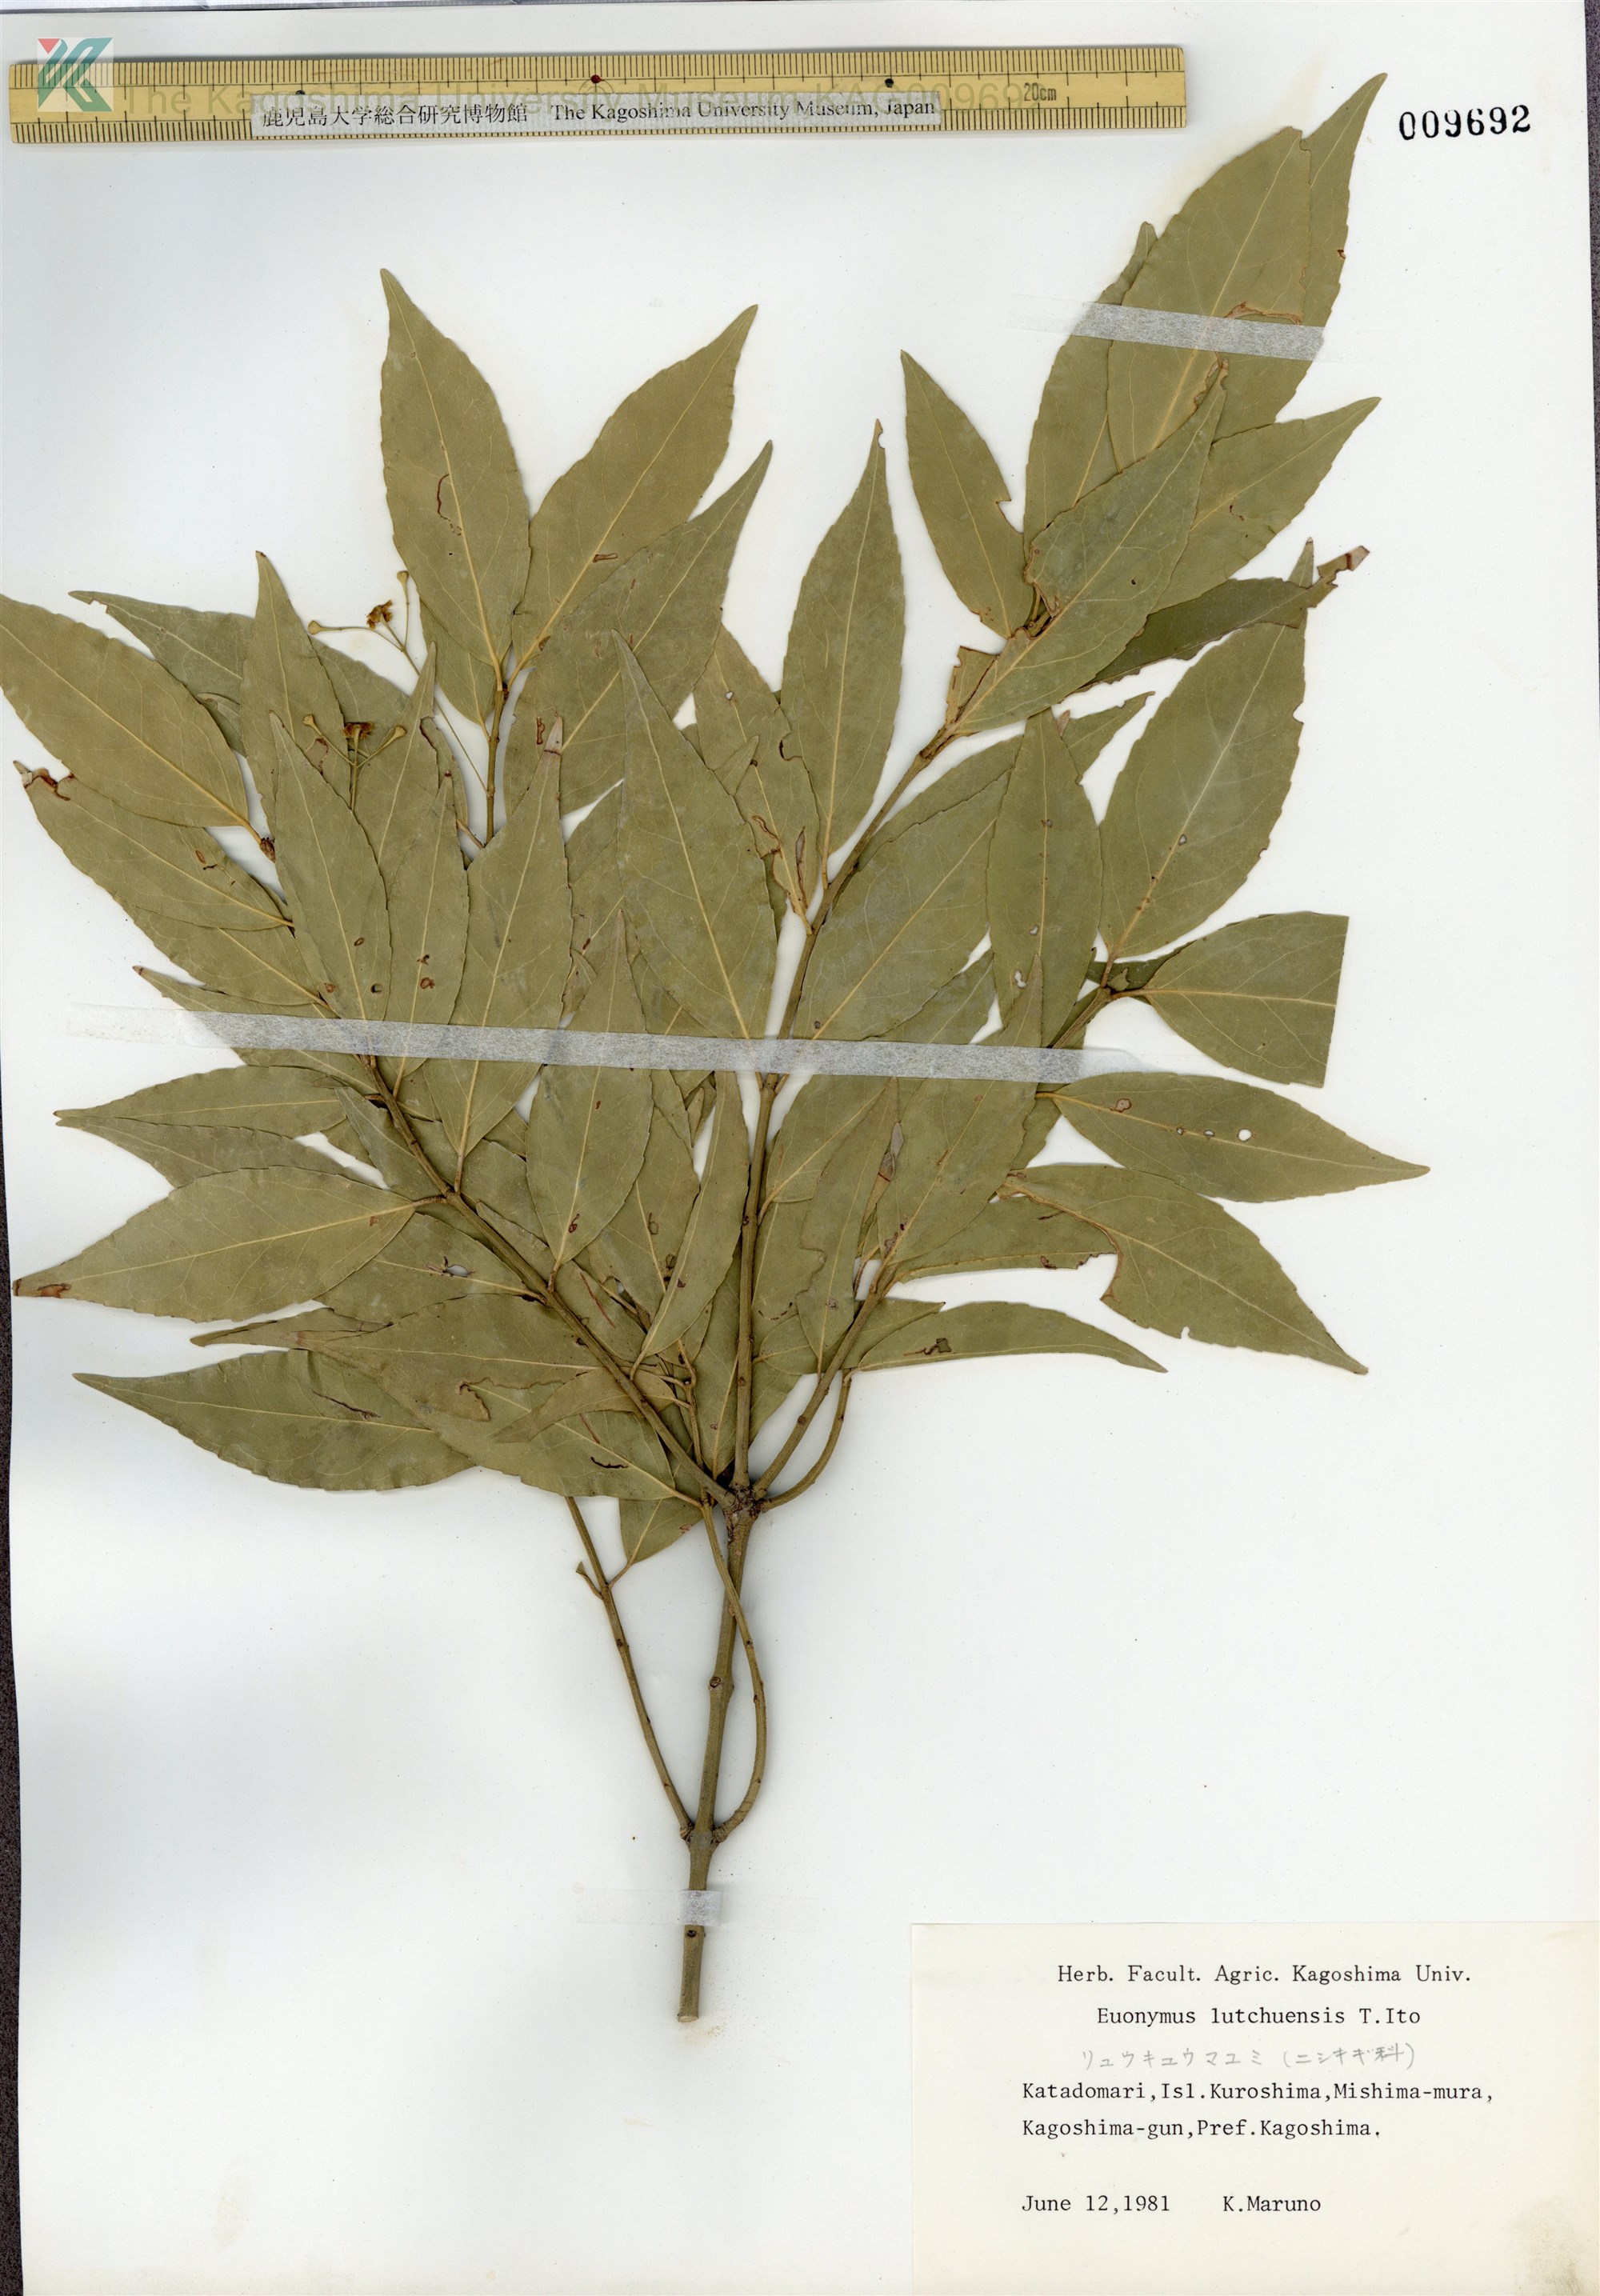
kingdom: Plantae
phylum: Tracheophyta
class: Magnoliopsida
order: Celastrales
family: Celastraceae
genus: Euonymus
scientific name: Euonymus lutchuensis
